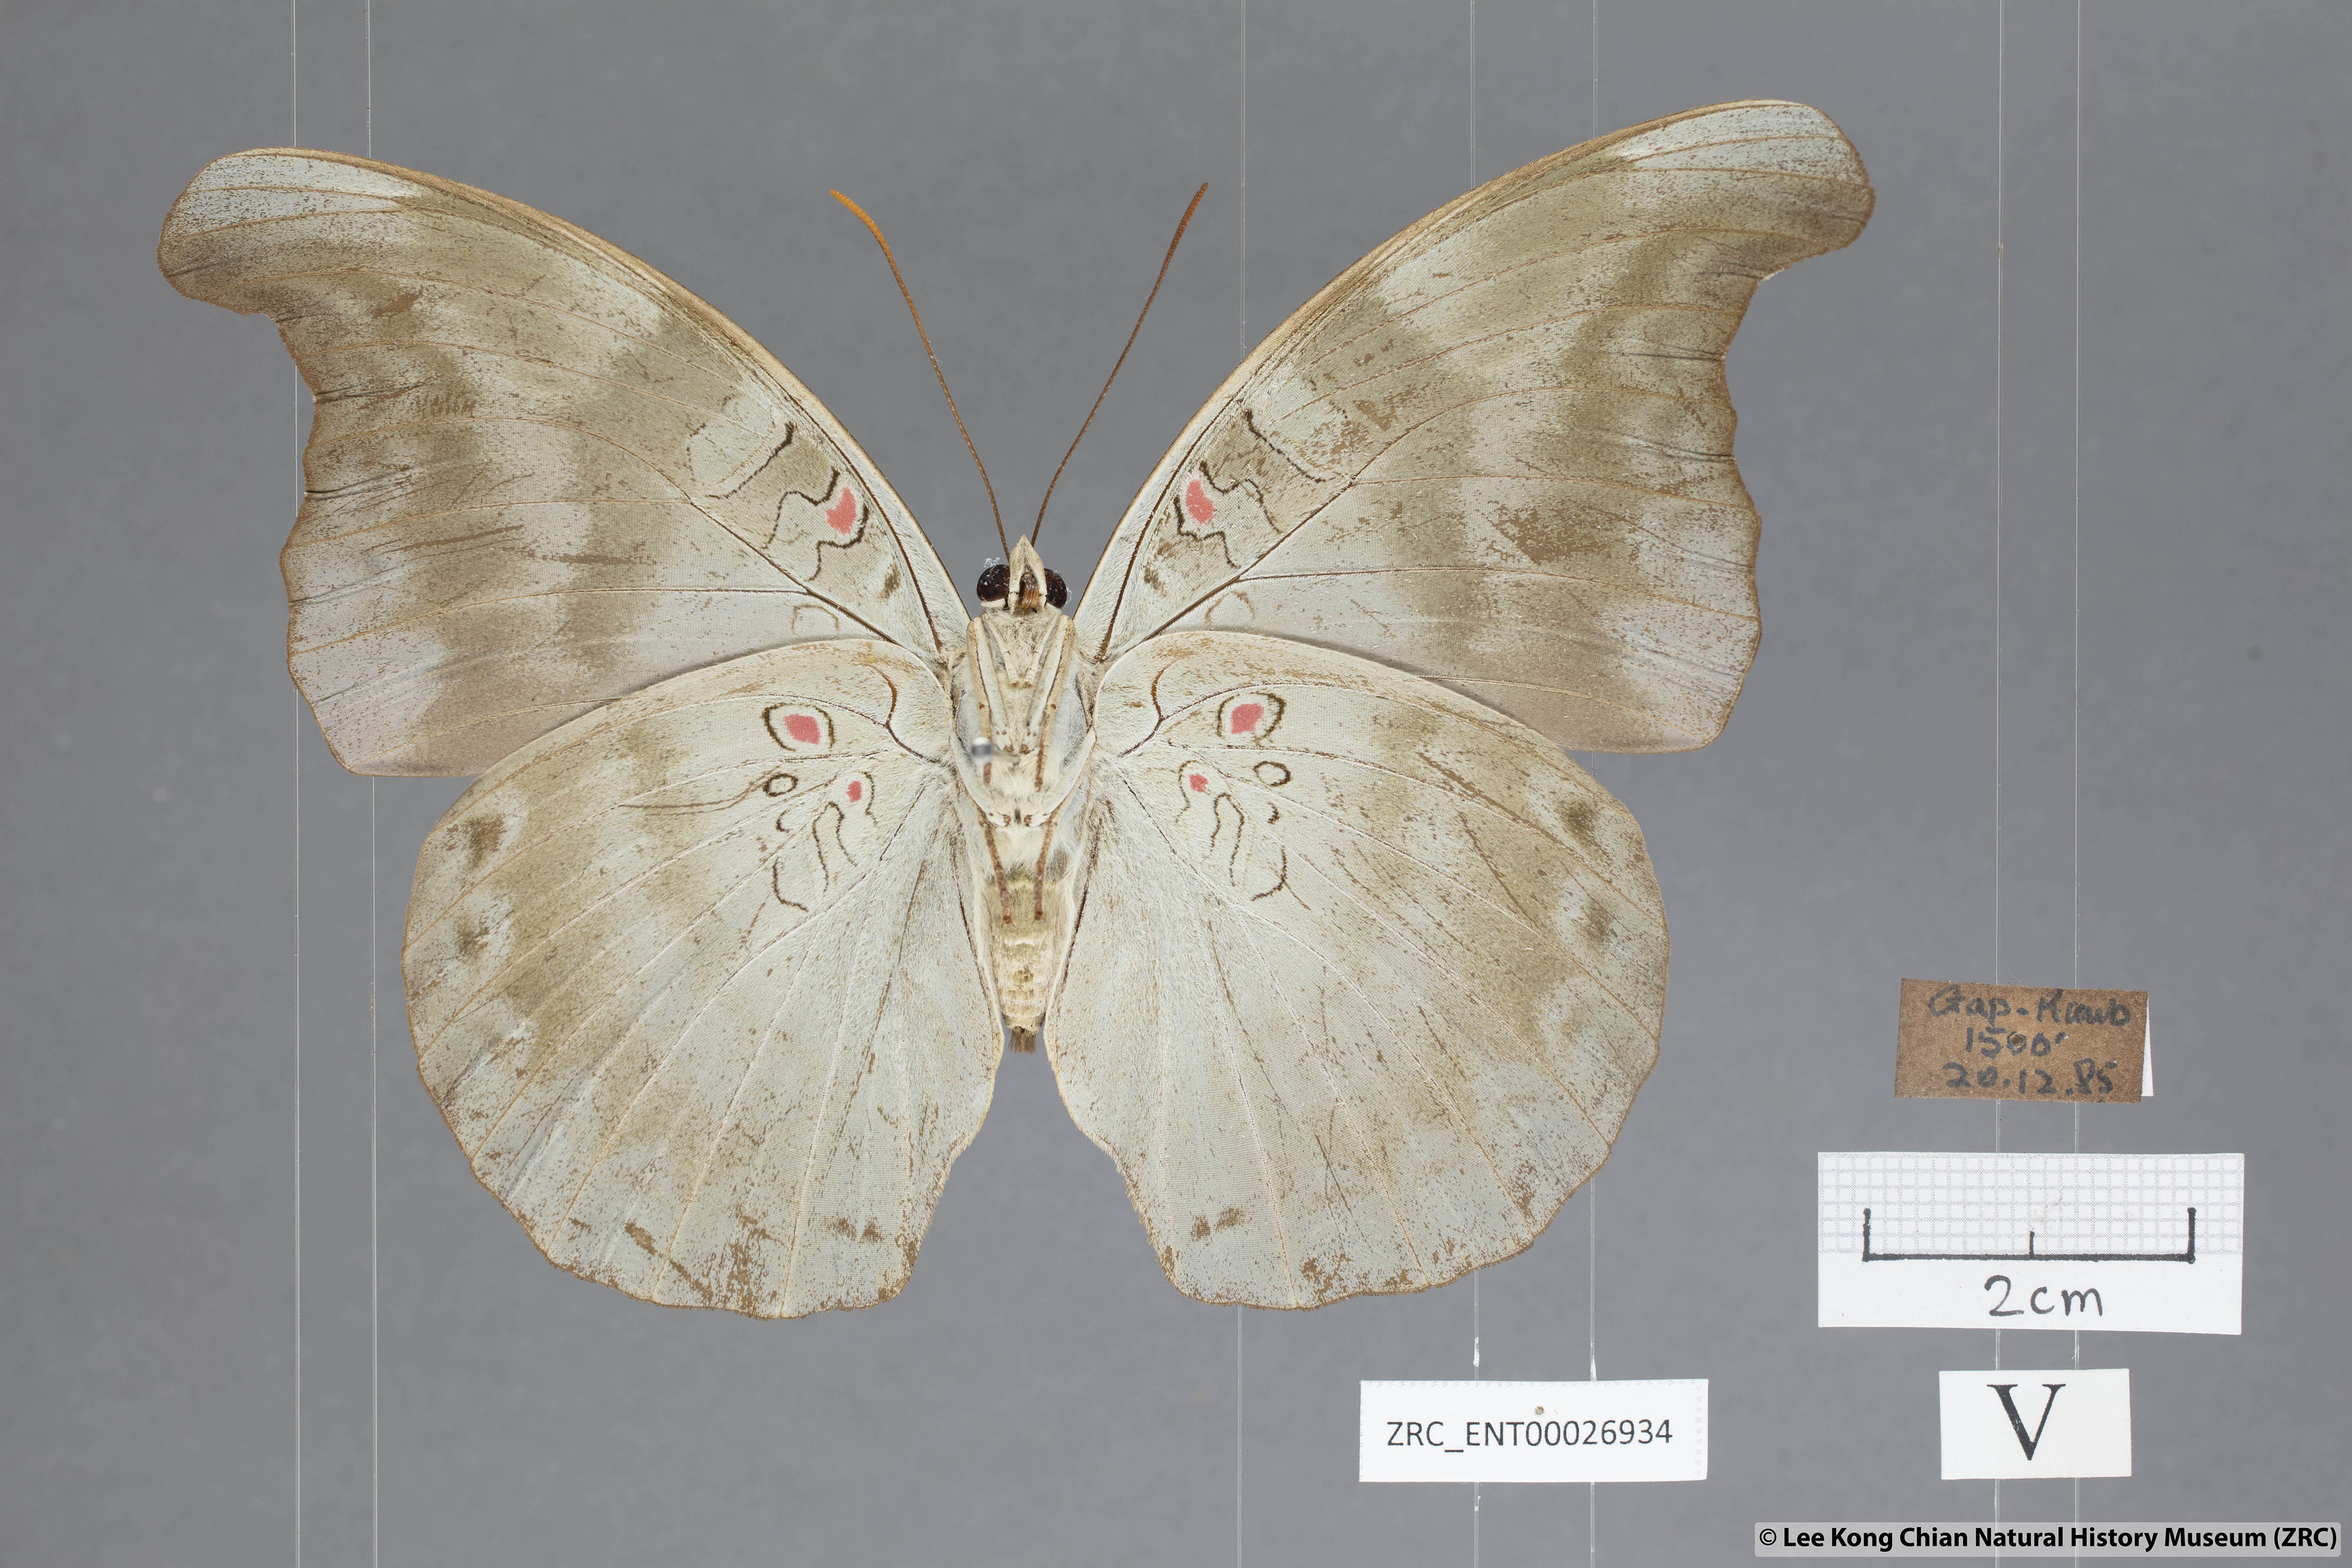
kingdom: Animalia
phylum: Arthropoda
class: Insecta
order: Lepidoptera
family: Nymphalidae
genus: Euthalia
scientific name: Euthalia Dophla evelina
